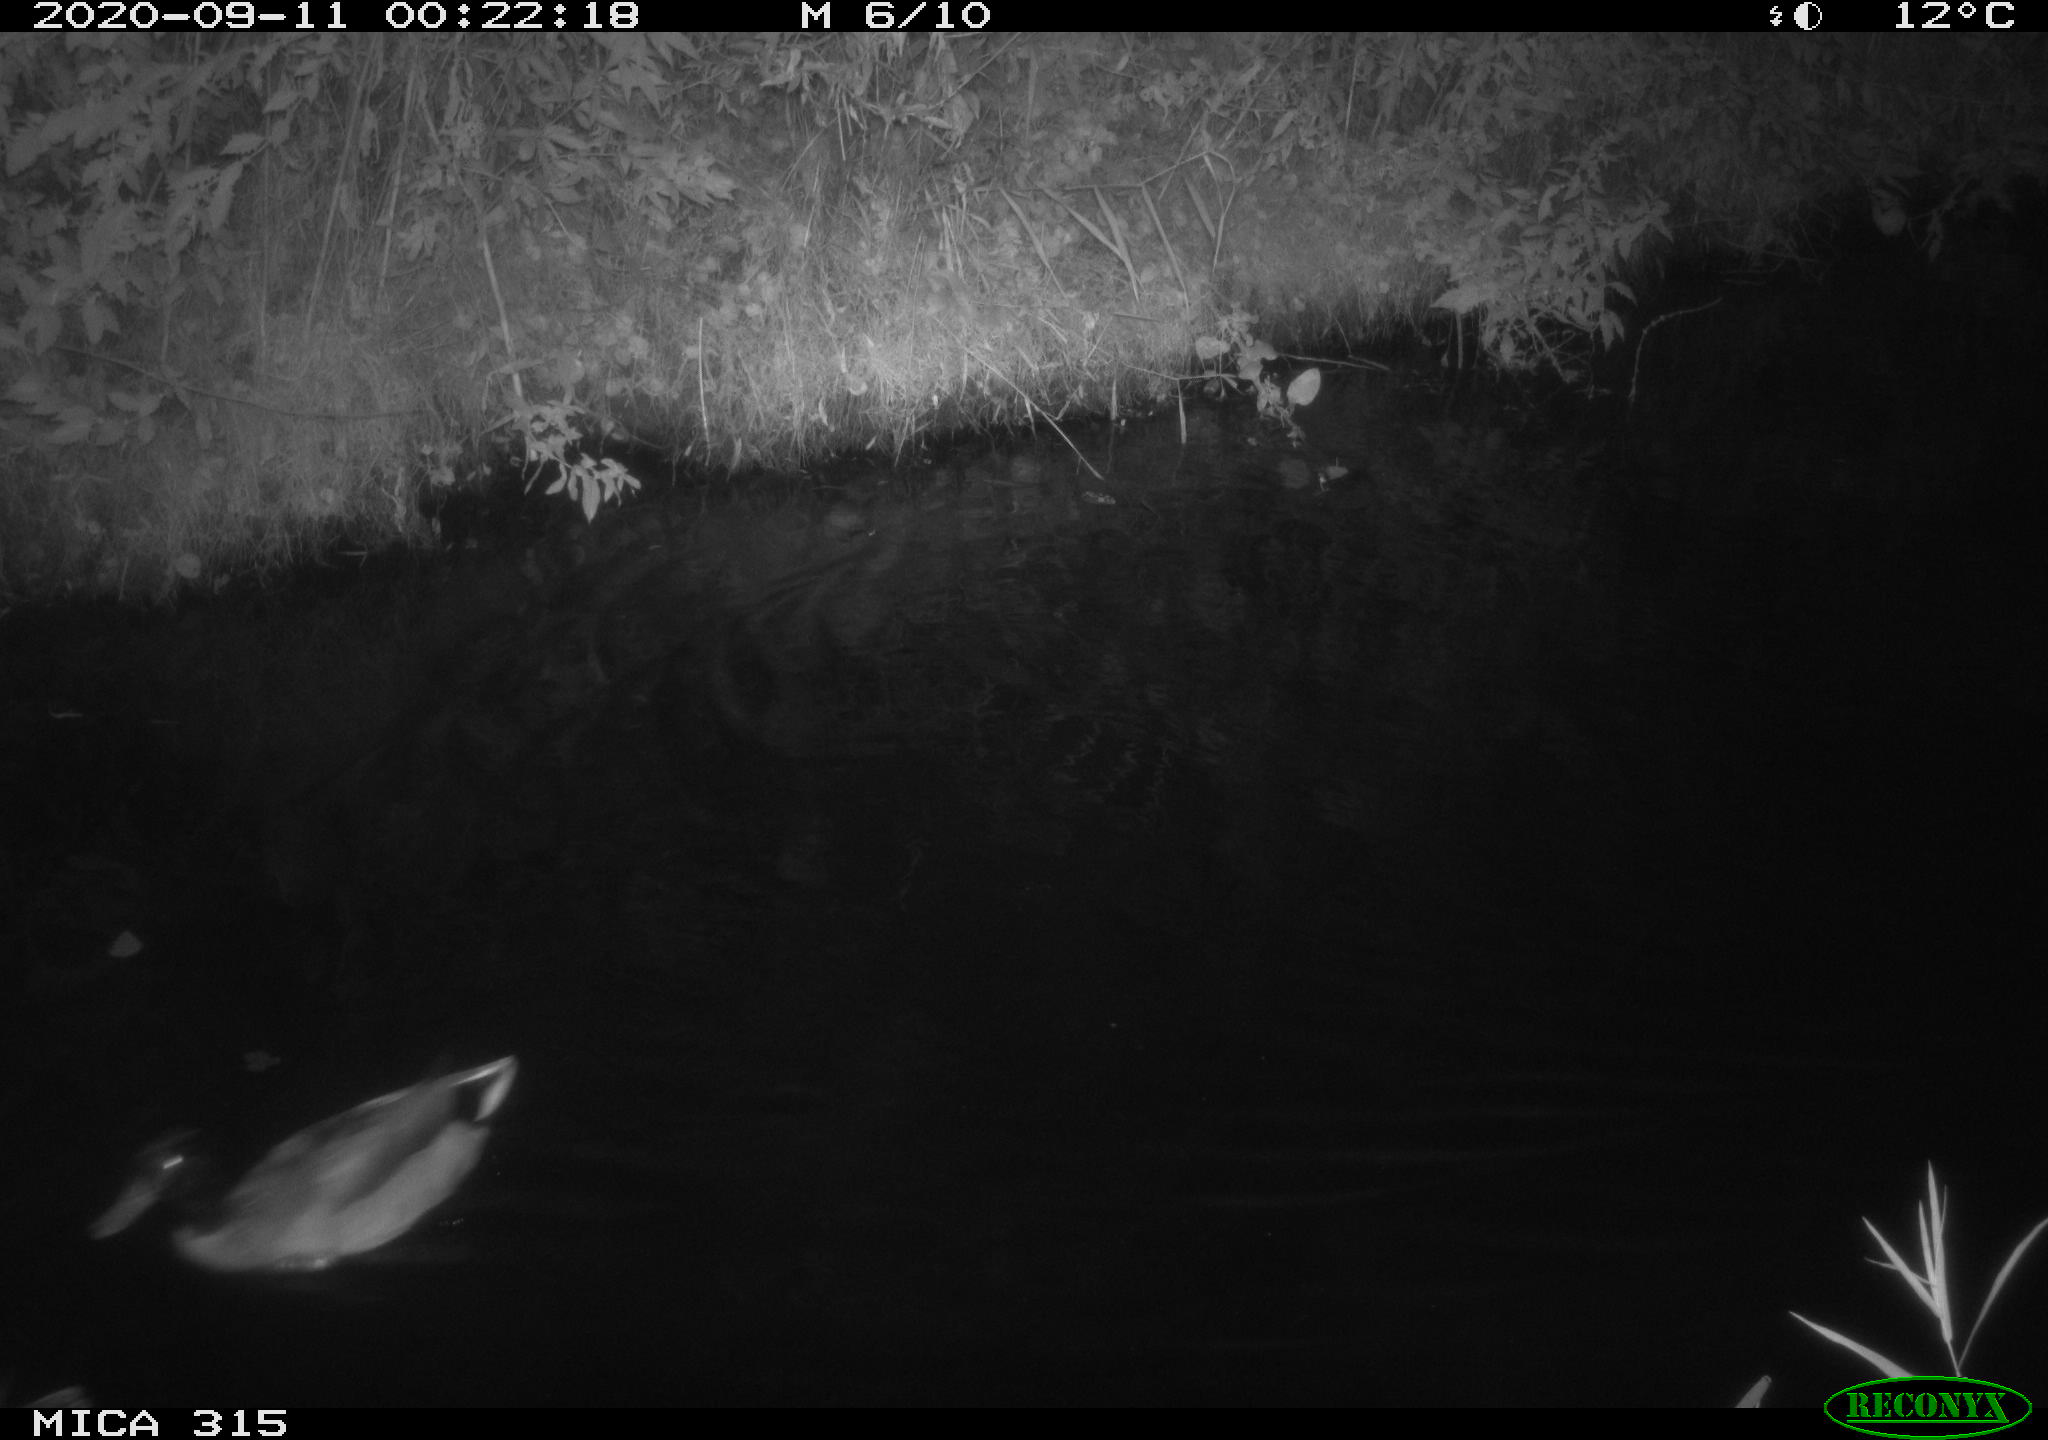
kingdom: Animalia
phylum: Chordata
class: Aves
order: Anseriformes
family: Anatidae
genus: Anas
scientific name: Anas platyrhynchos
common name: Mallard
